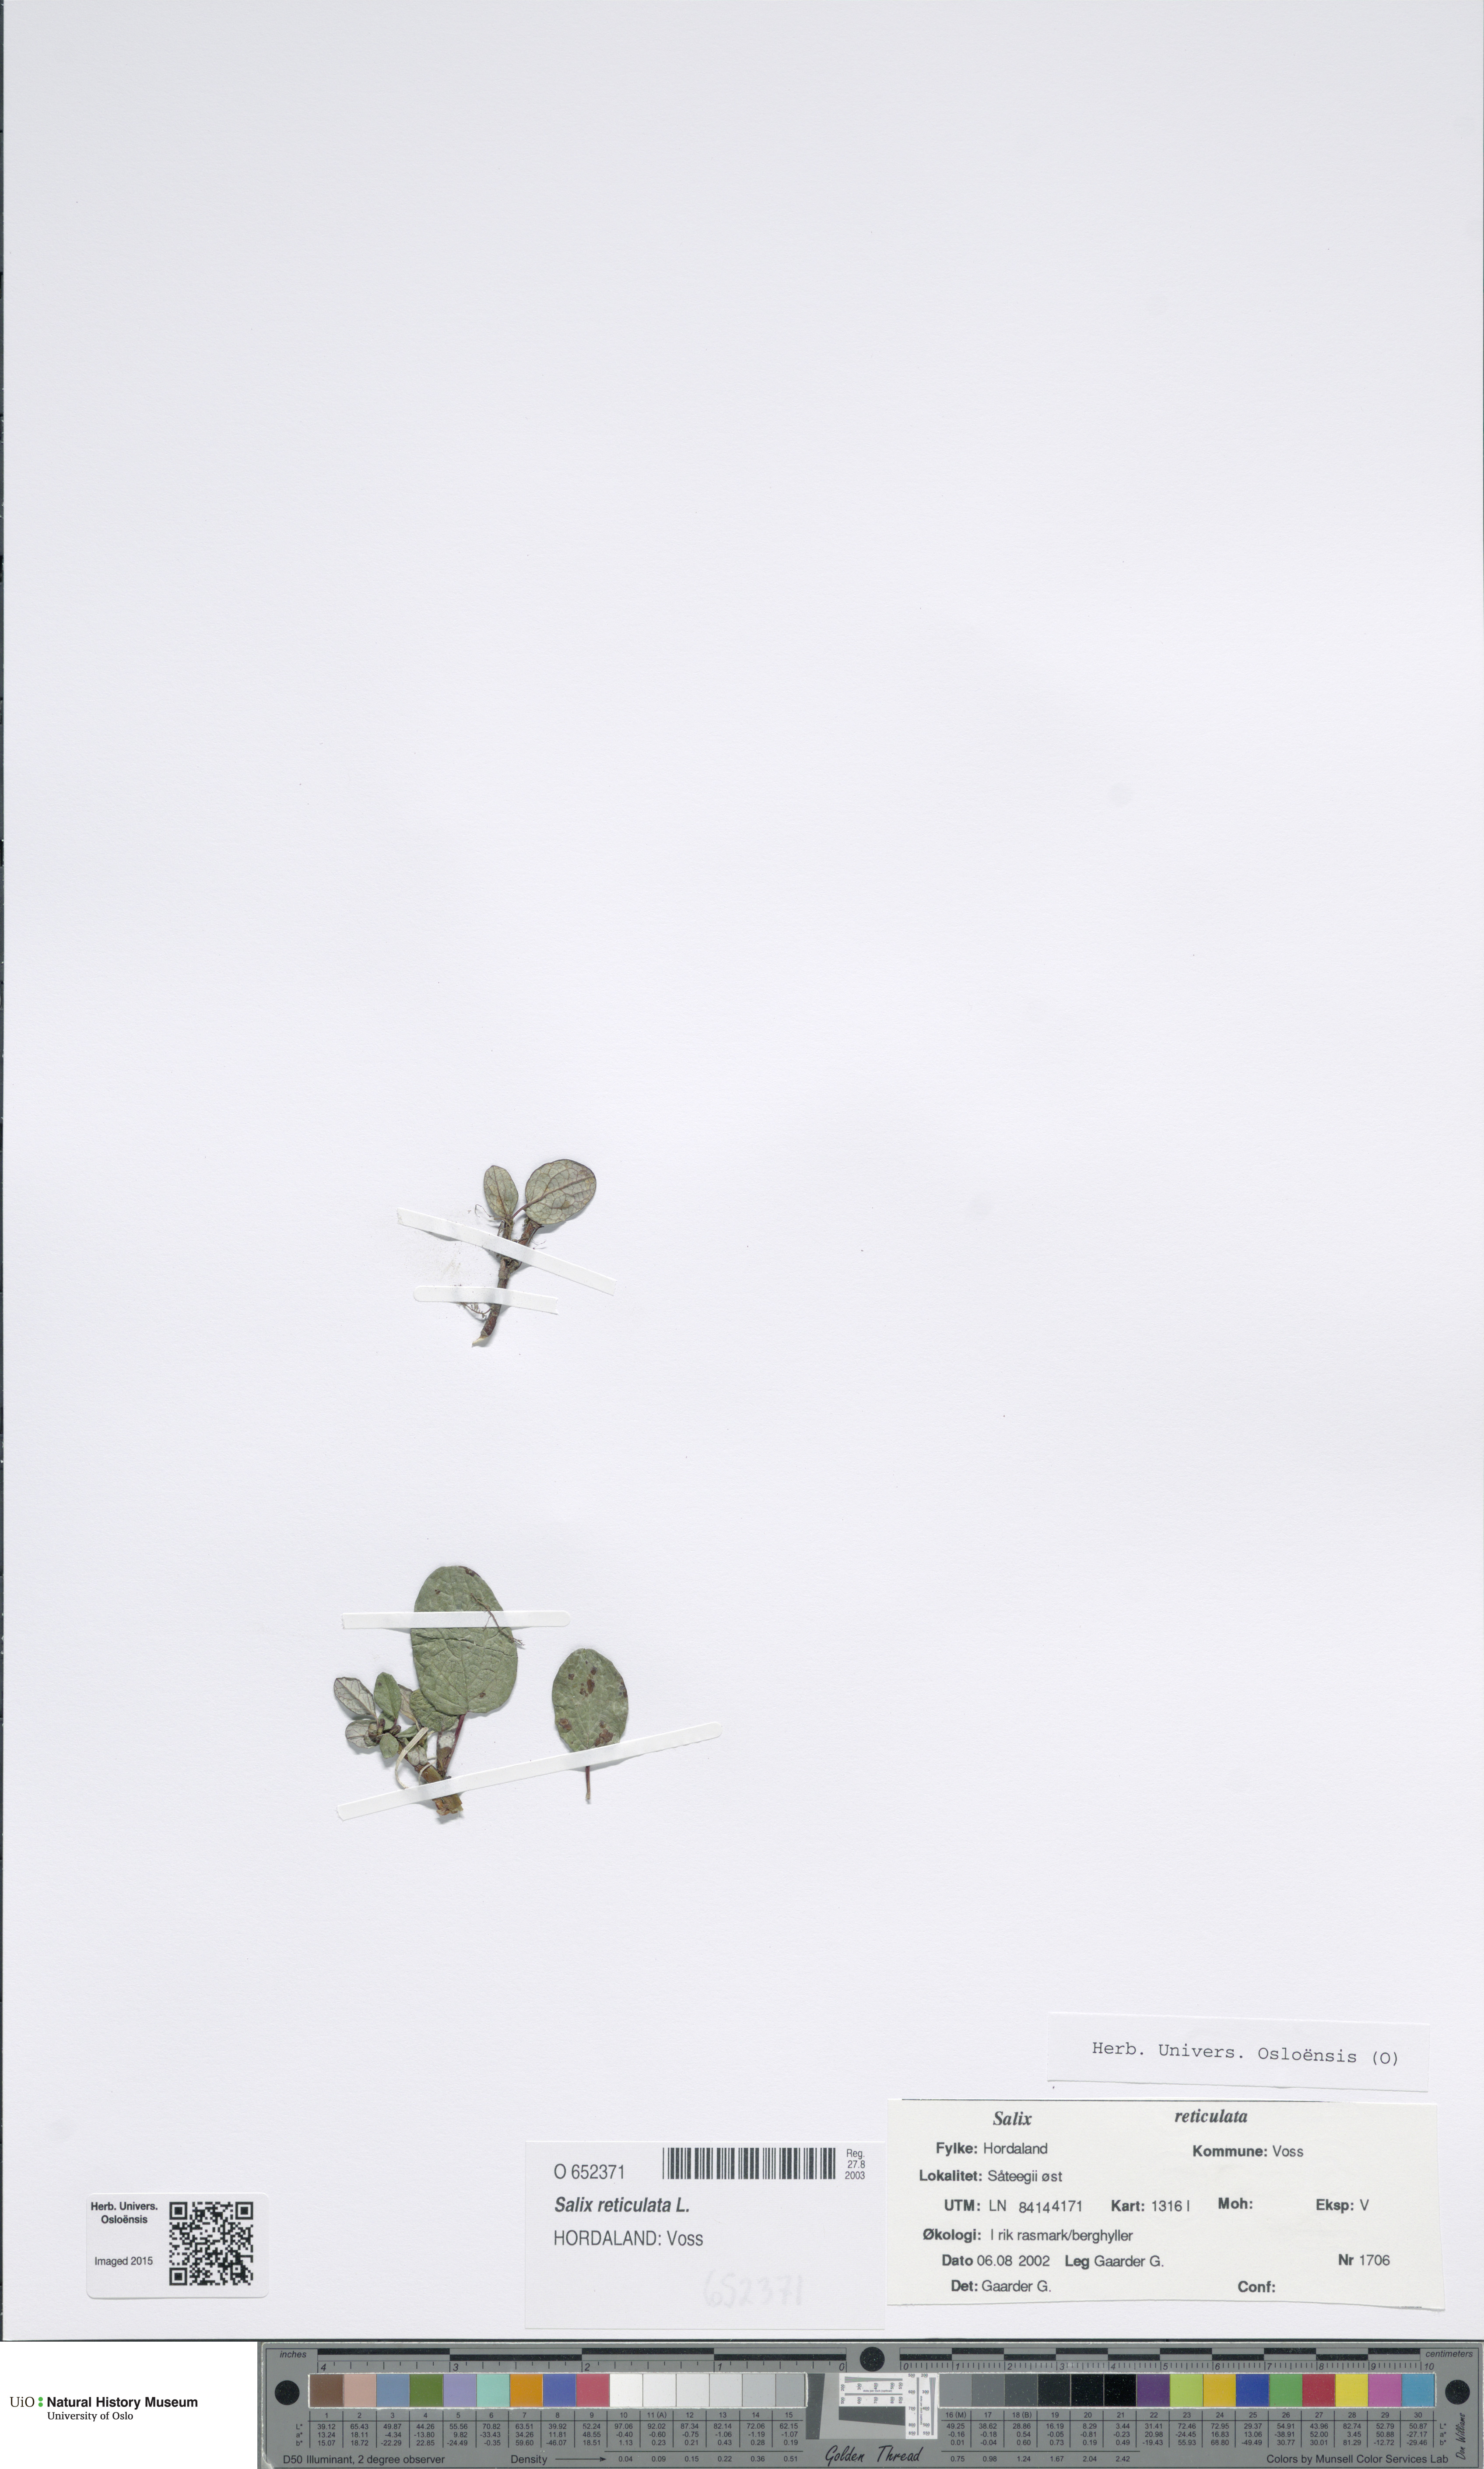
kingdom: Plantae
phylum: Tracheophyta
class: Magnoliopsida
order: Malpighiales
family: Salicaceae
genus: Salix
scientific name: Salix reticulata
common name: Net-leaved willow
